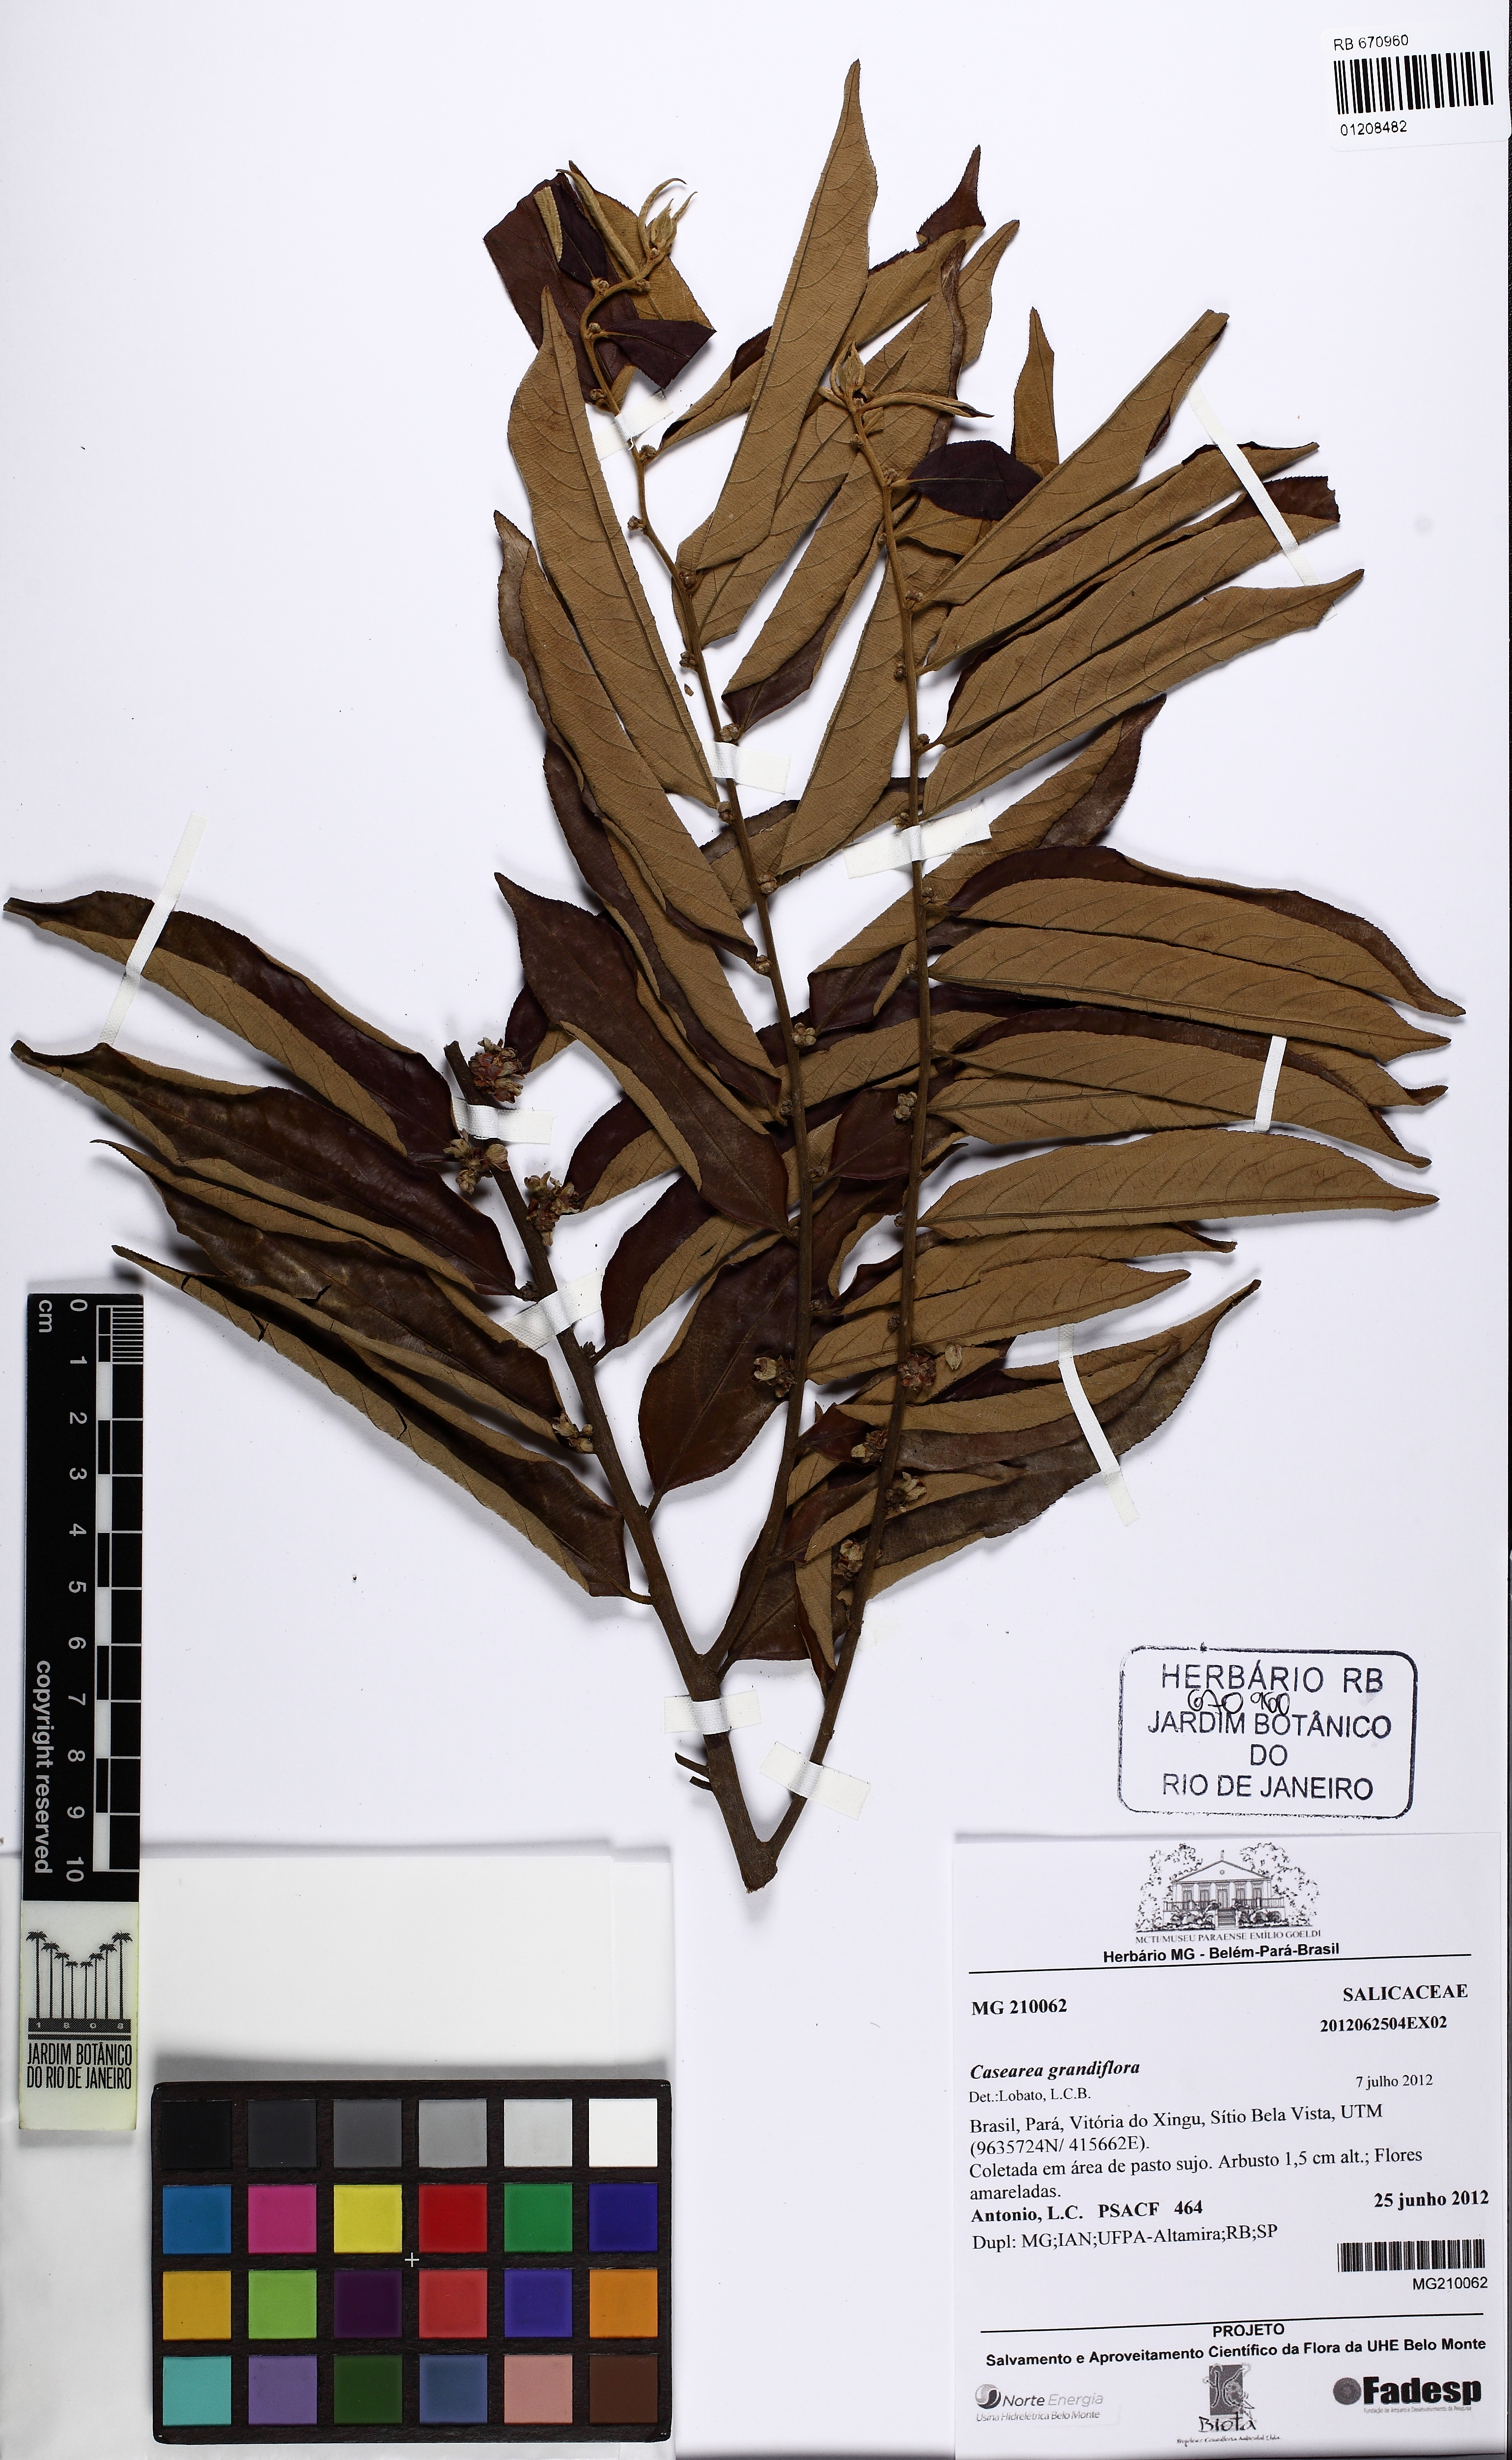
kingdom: Plantae
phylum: Tracheophyta
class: Magnoliopsida
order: Malpighiales
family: Salicaceae
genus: Casearia
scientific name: Casearia grandiflora
